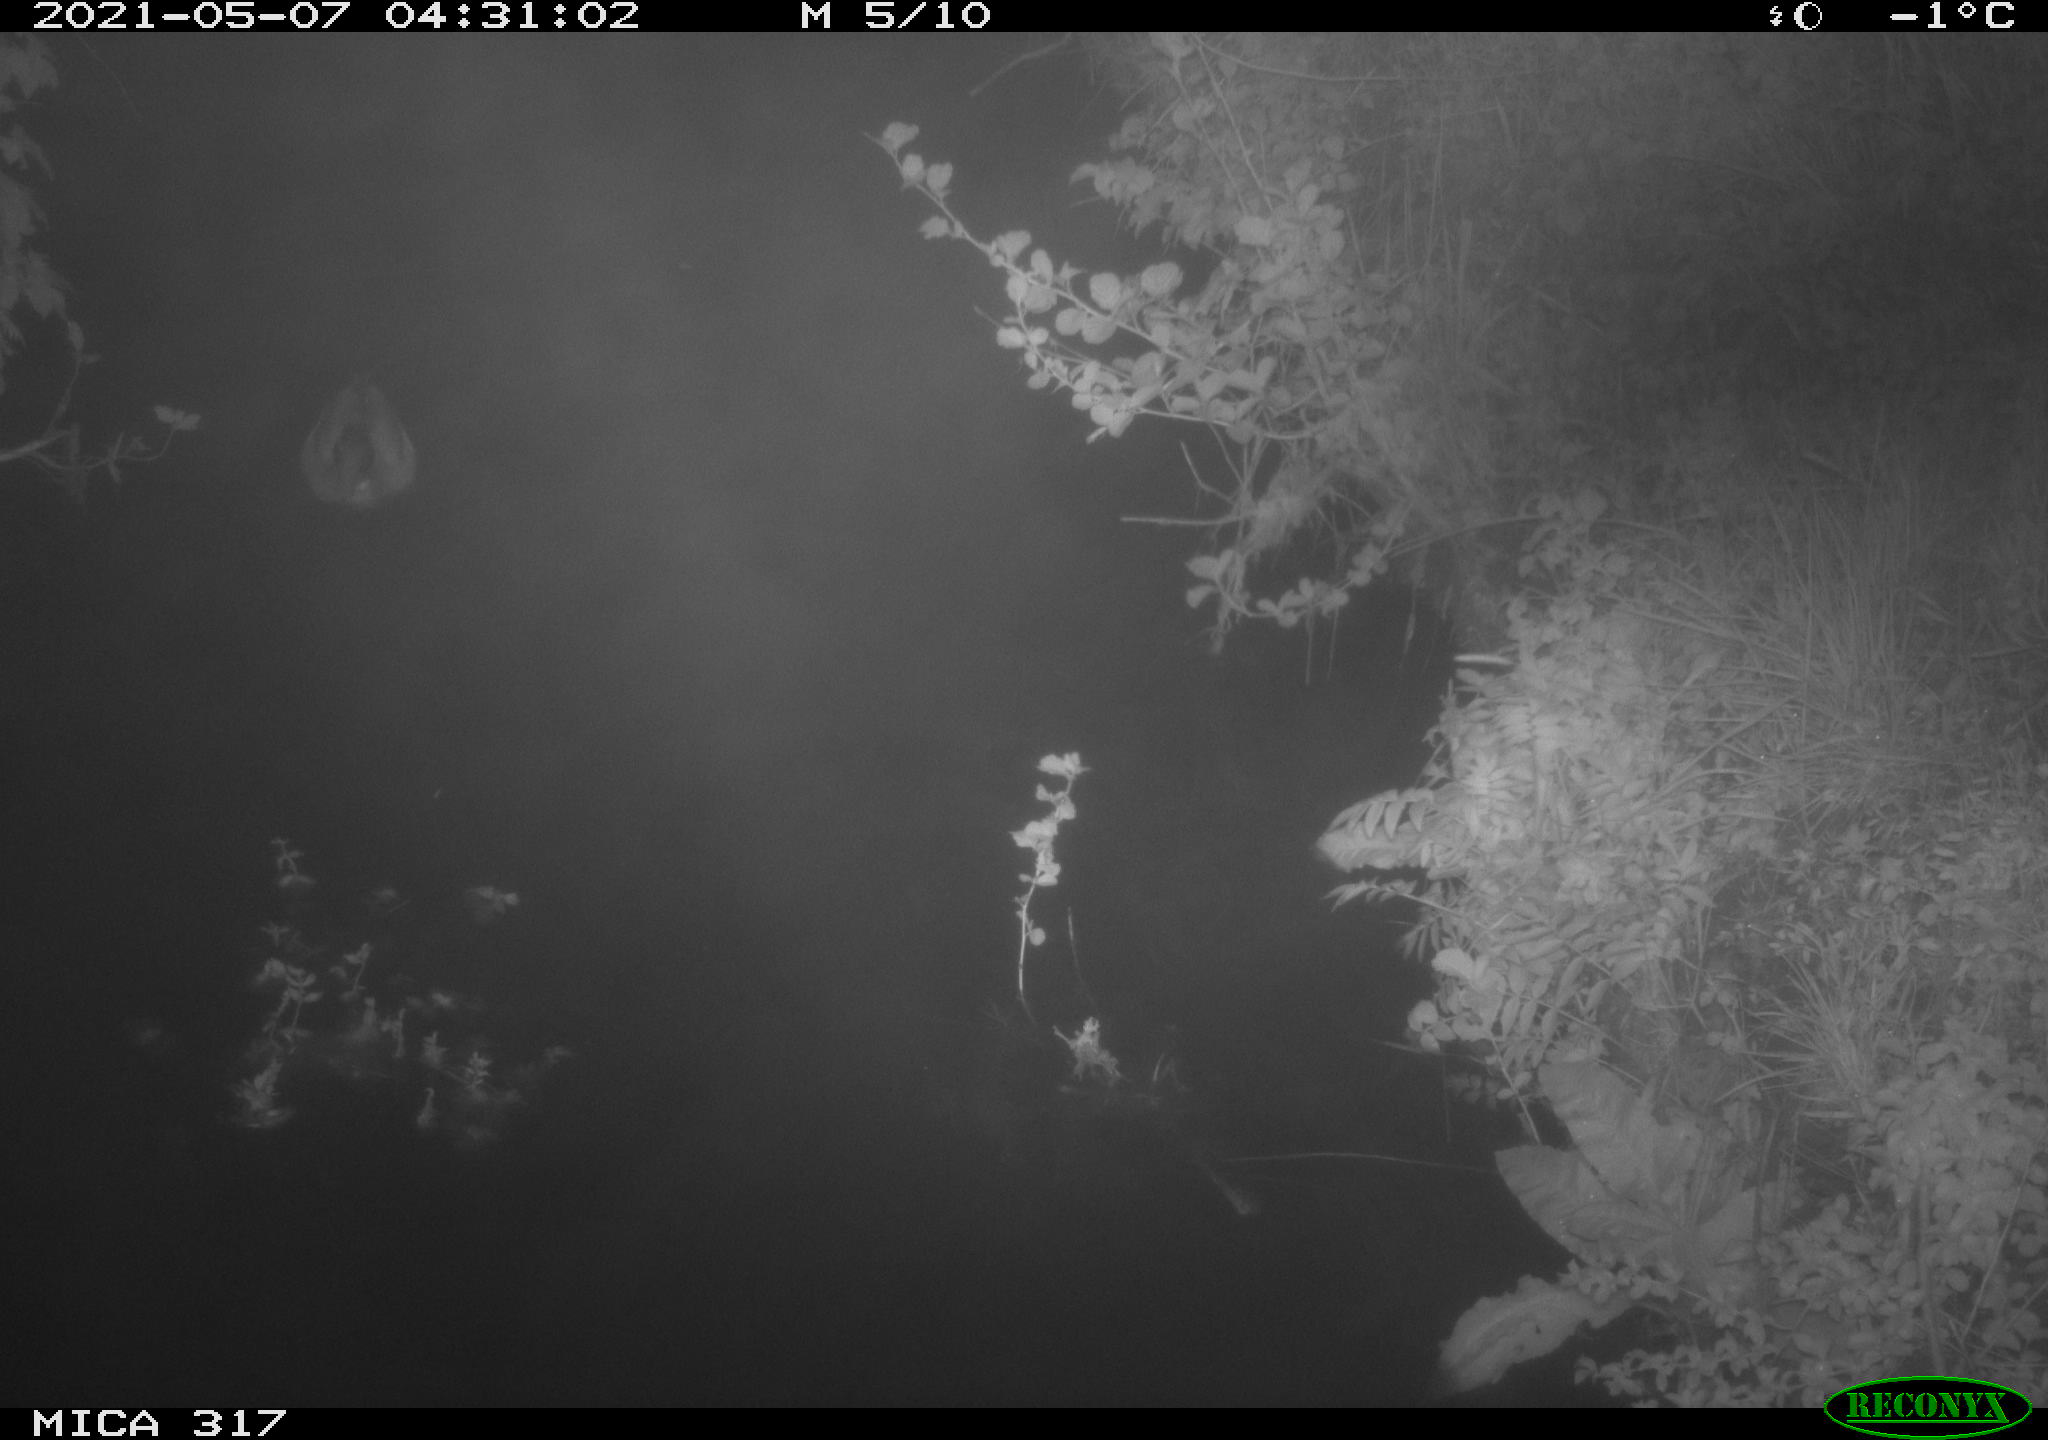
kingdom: Animalia
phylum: Chordata
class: Aves
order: Anseriformes
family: Anatidae
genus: Anas
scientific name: Anas
